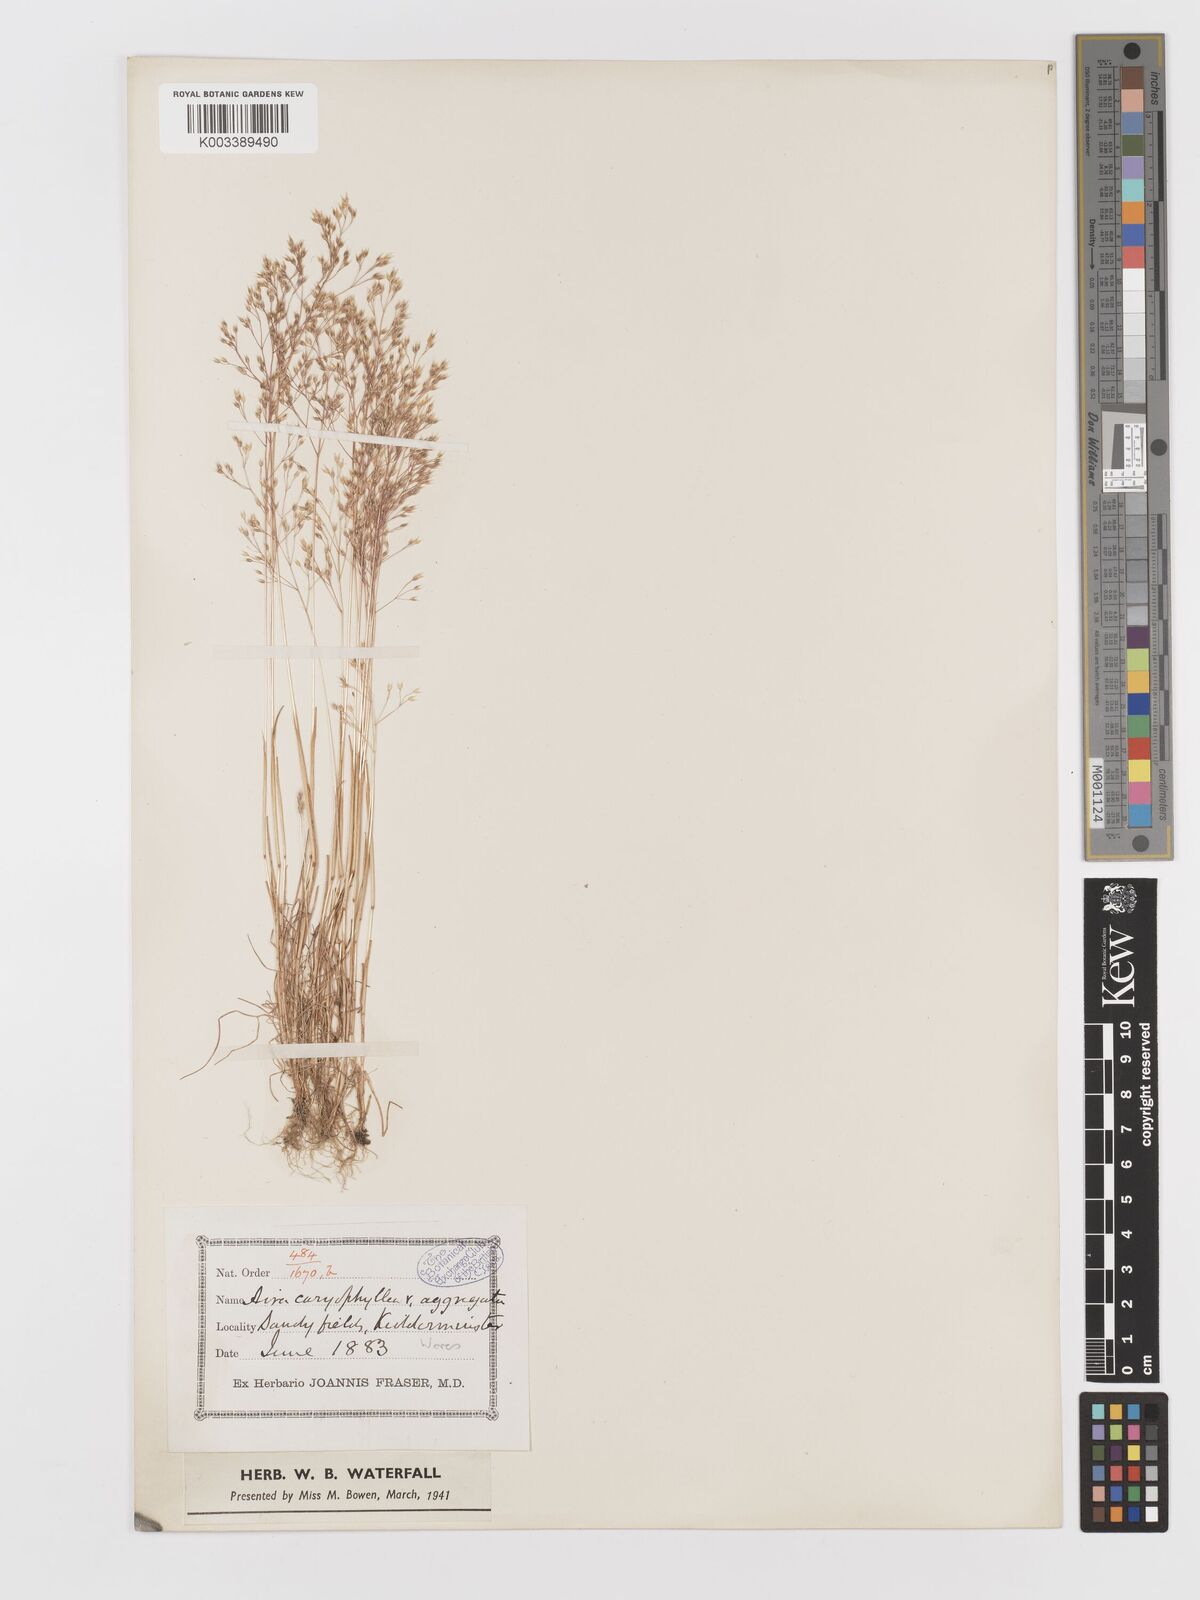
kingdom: Plantae
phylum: Tracheophyta
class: Liliopsida
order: Poales
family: Poaceae
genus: Aira
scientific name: Aira caryophyllea
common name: Silver hairgrass
